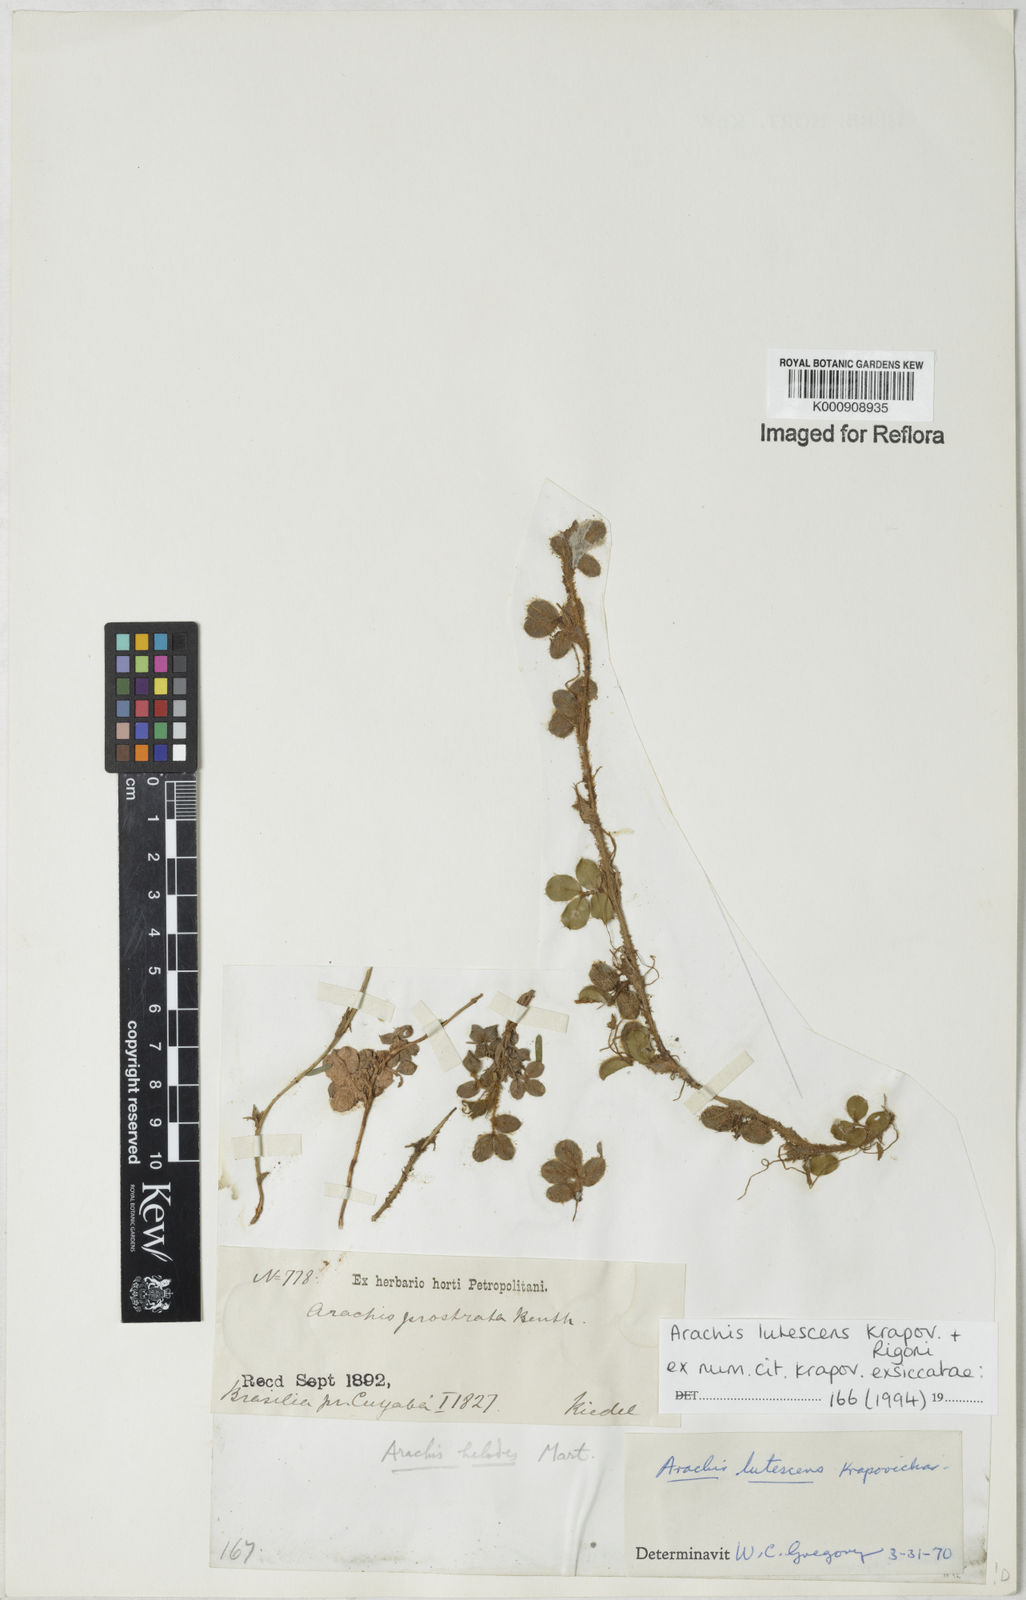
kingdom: Plantae
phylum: Tracheophyta
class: Magnoliopsida
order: Fabales
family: Fabaceae
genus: Arachis
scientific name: Arachis macedoi
